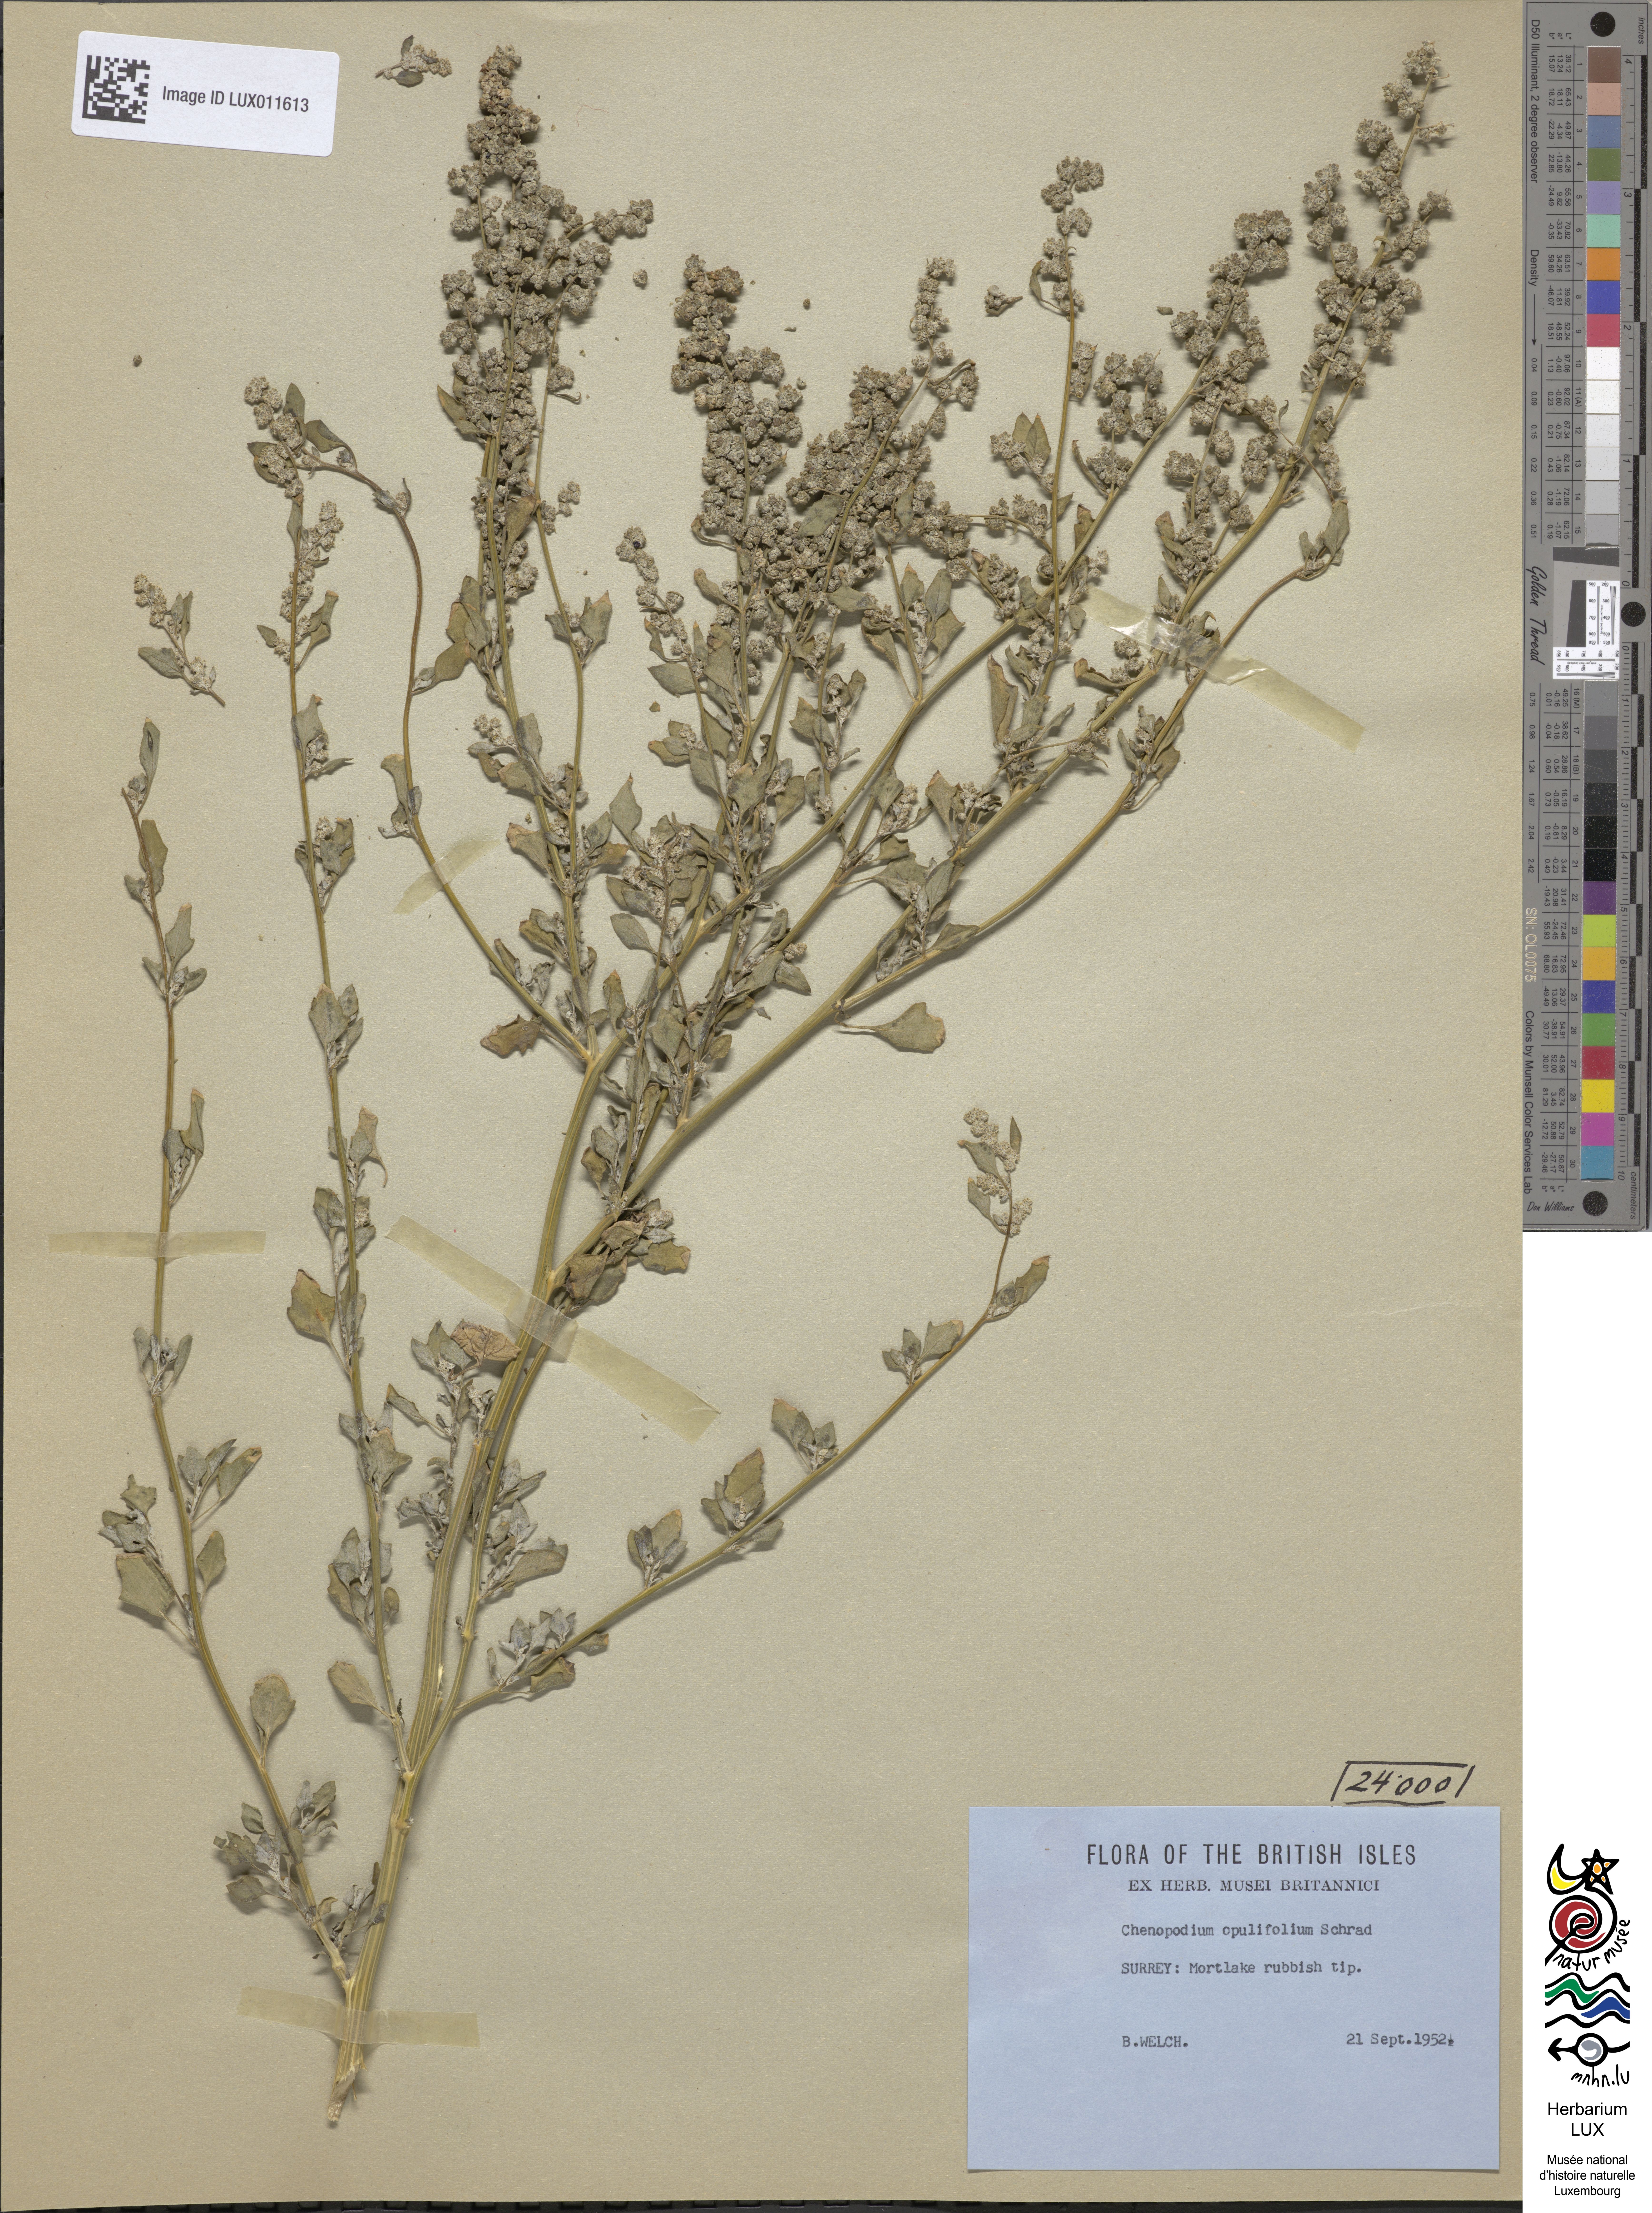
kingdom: Plantae
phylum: Tracheophyta
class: Magnoliopsida
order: Caryophyllales
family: Amaranthaceae
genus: Chenopodium
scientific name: Chenopodium opulifolium
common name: Grey goosefoot
